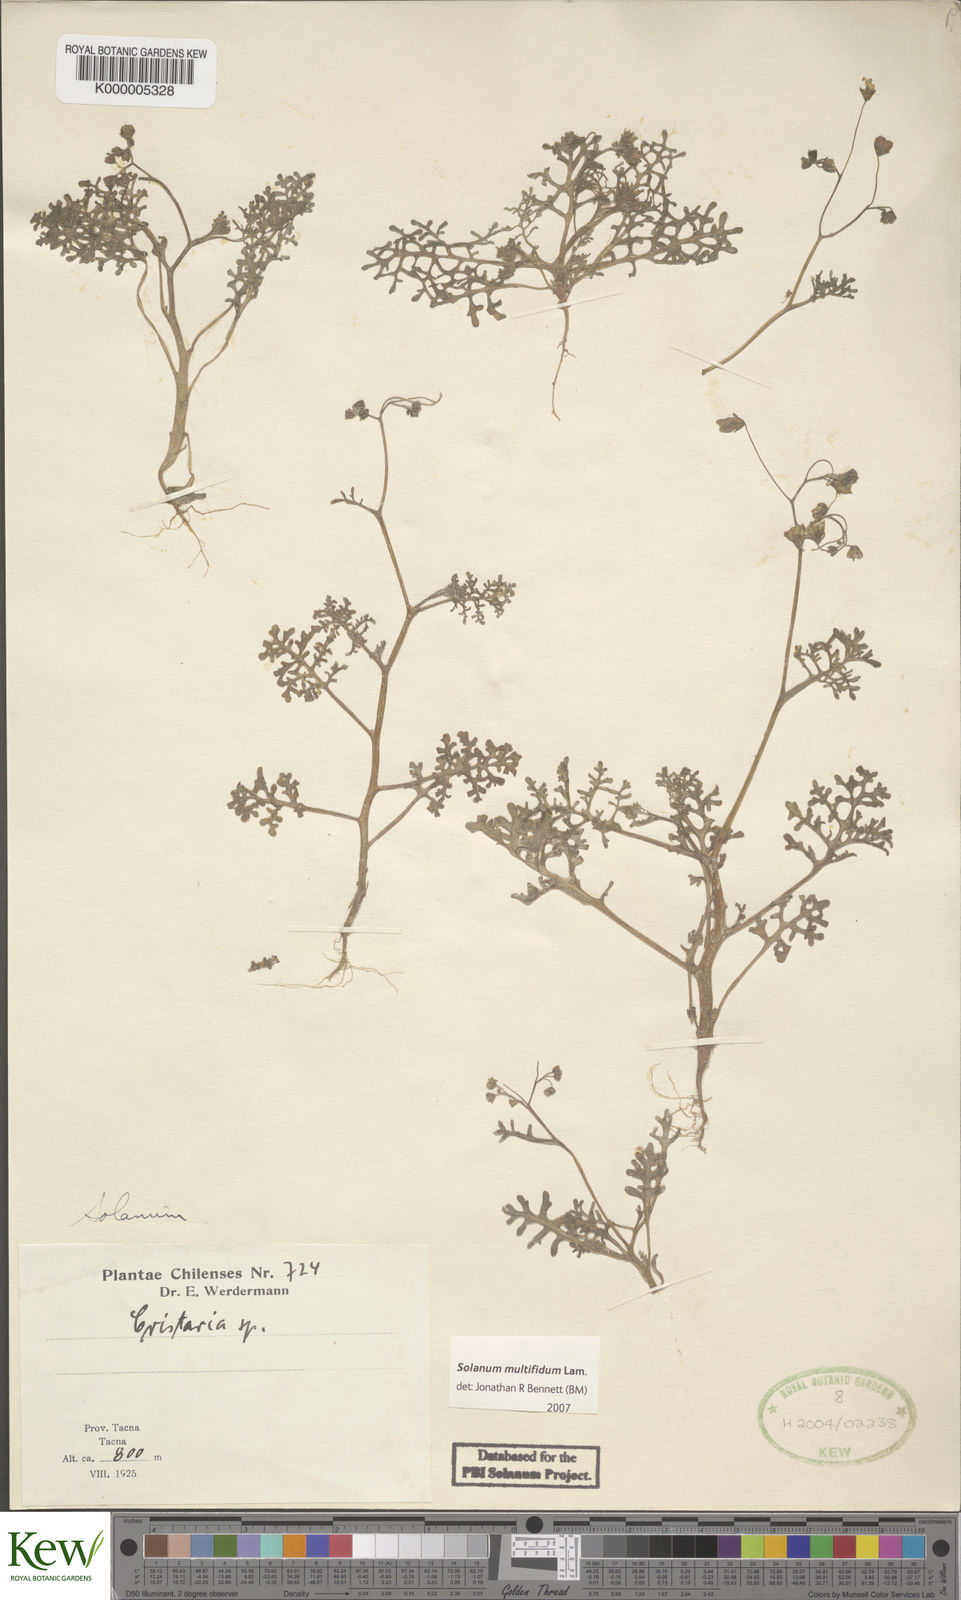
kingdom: Plantae
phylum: Tracheophyta
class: Magnoliopsida
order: Solanales
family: Solanaceae
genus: Solanum
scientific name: Solanum multifidum
